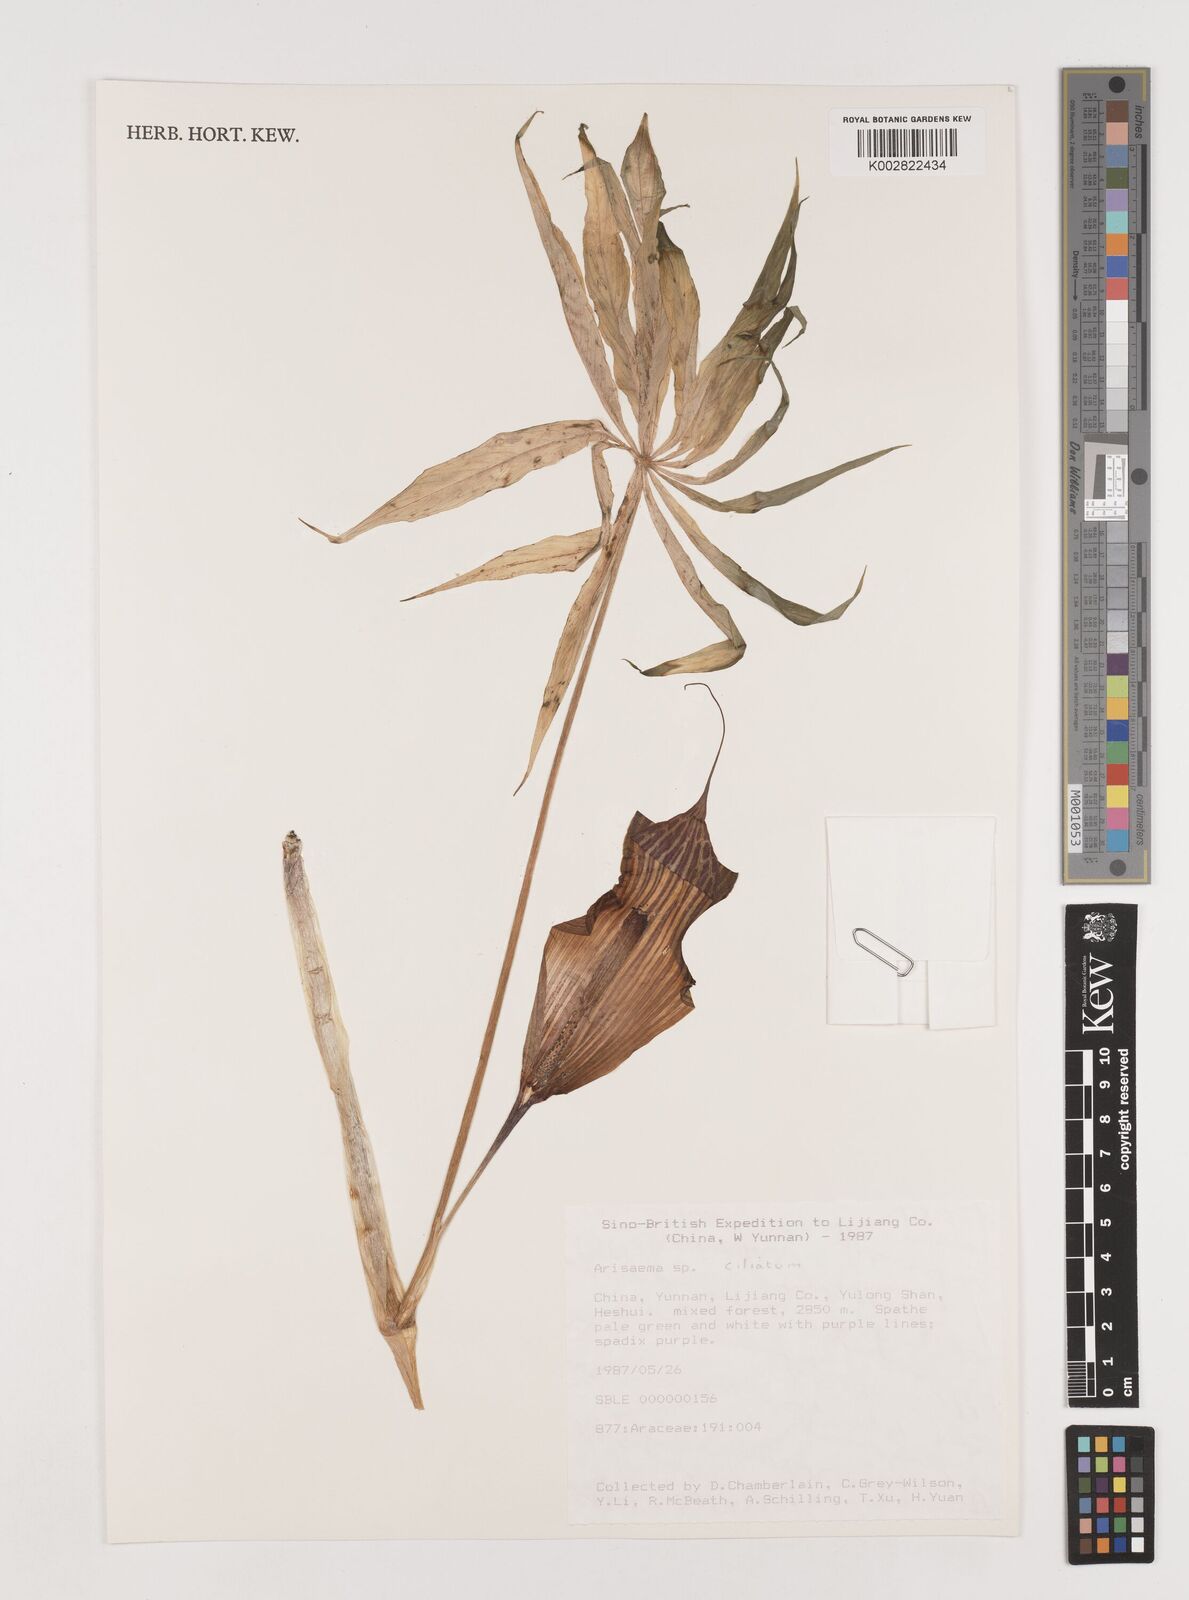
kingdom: Plantae
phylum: Tracheophyta
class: Liliopsida
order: Alismatales
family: Araceae
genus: Arisaema
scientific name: Arisaema erubescens
